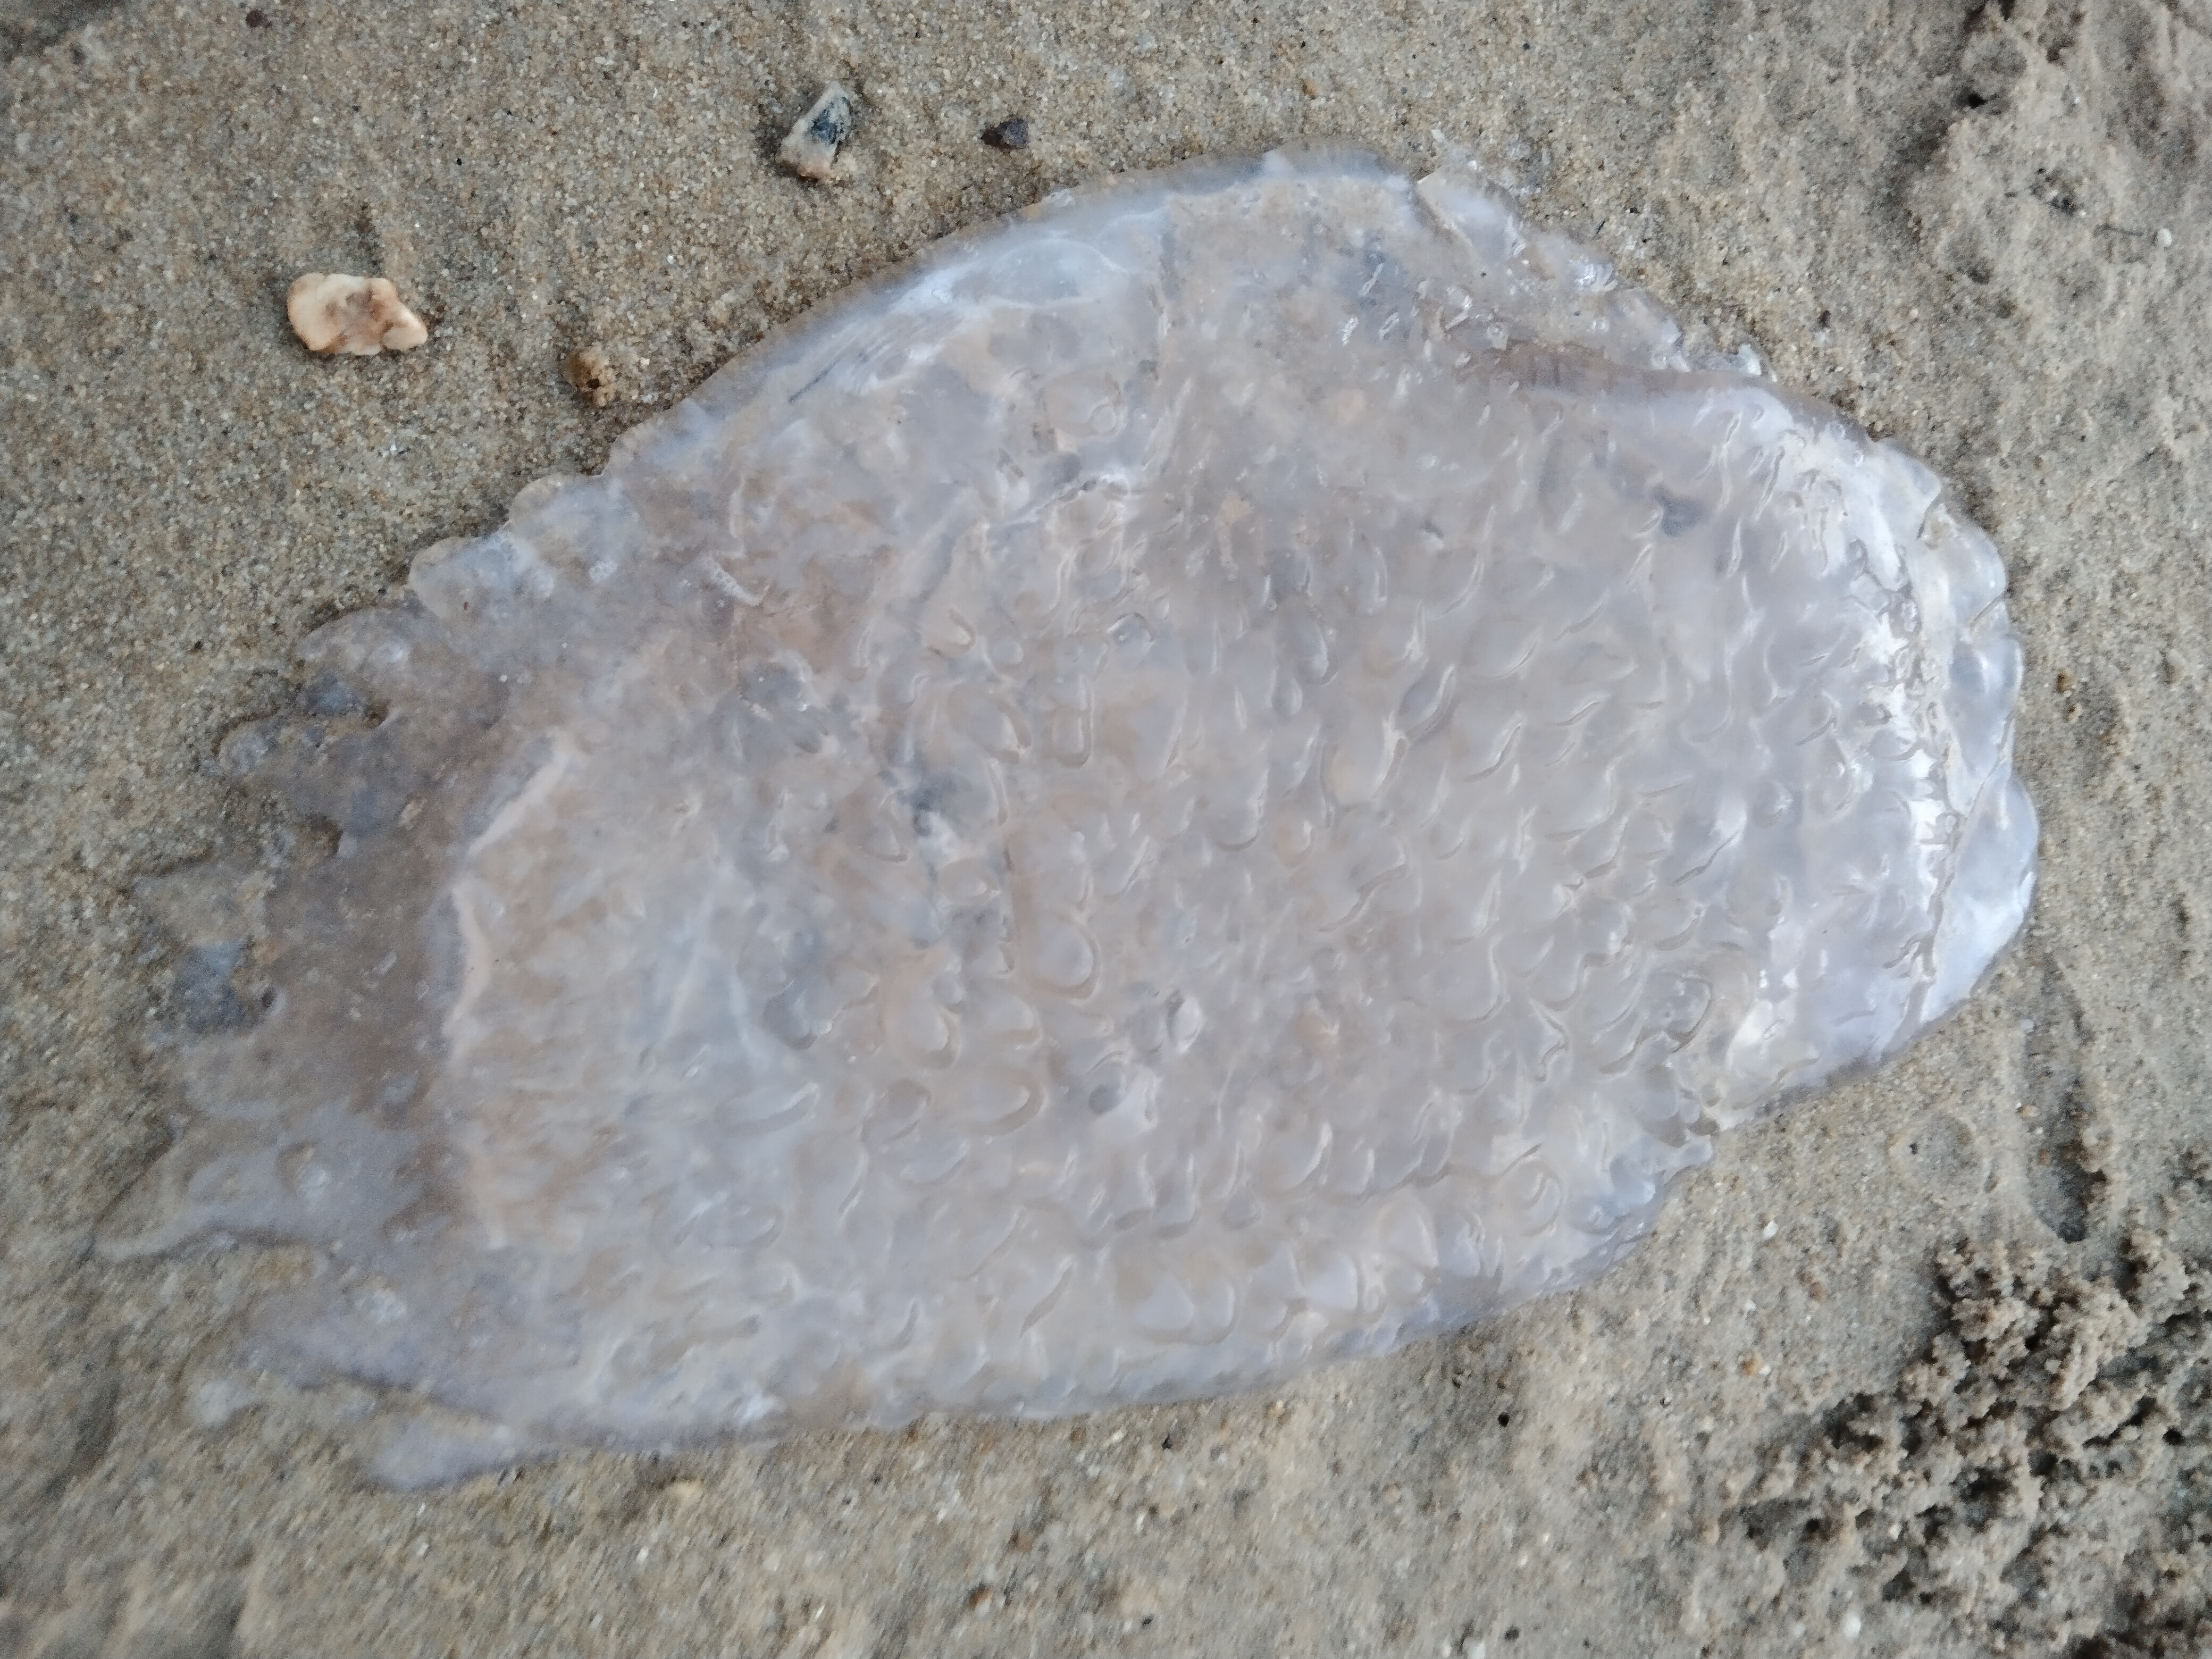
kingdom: Animalia
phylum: Cnidaria
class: Scyphozoa
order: Rhizostomeae
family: Lobonemidae
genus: Lobonema
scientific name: Lobonema smithii
